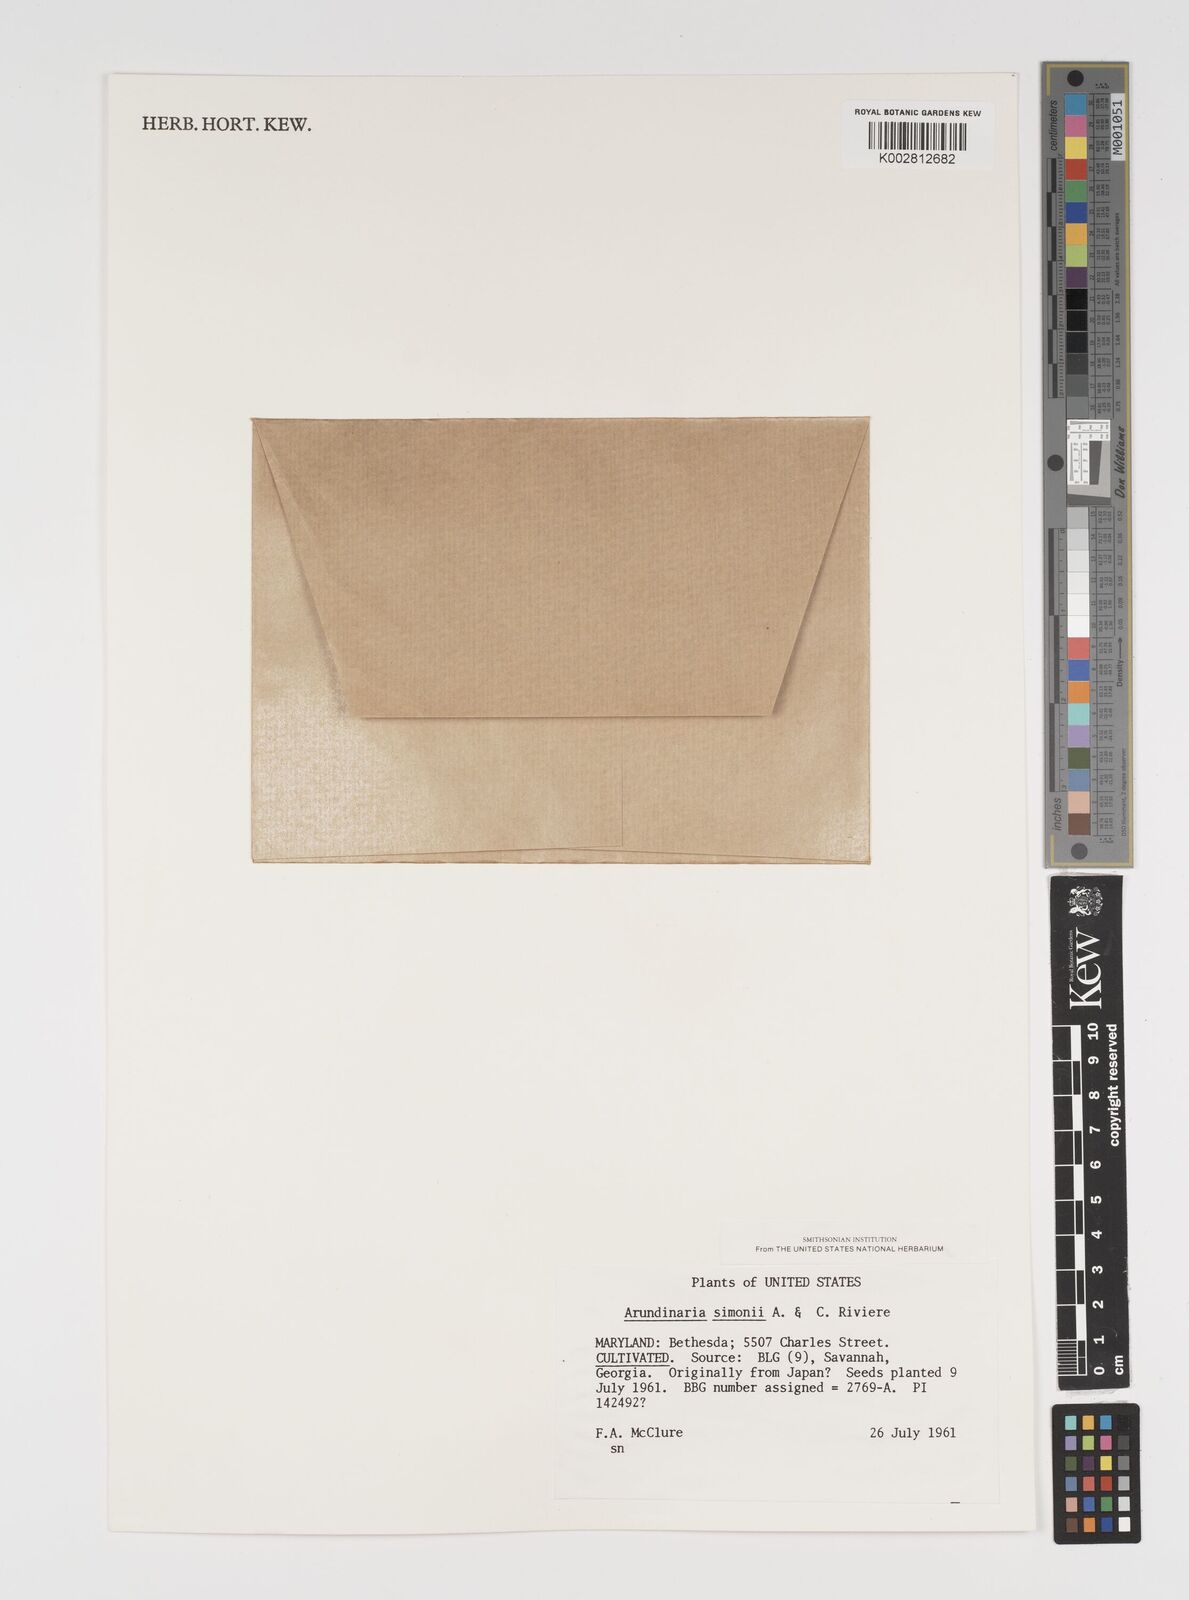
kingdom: Plantae
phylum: Tracheophyta
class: Liliopsida
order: Poales
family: Poaceae
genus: Pleioblastus
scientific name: Pleioblastus simonii
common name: Simon bamboo
